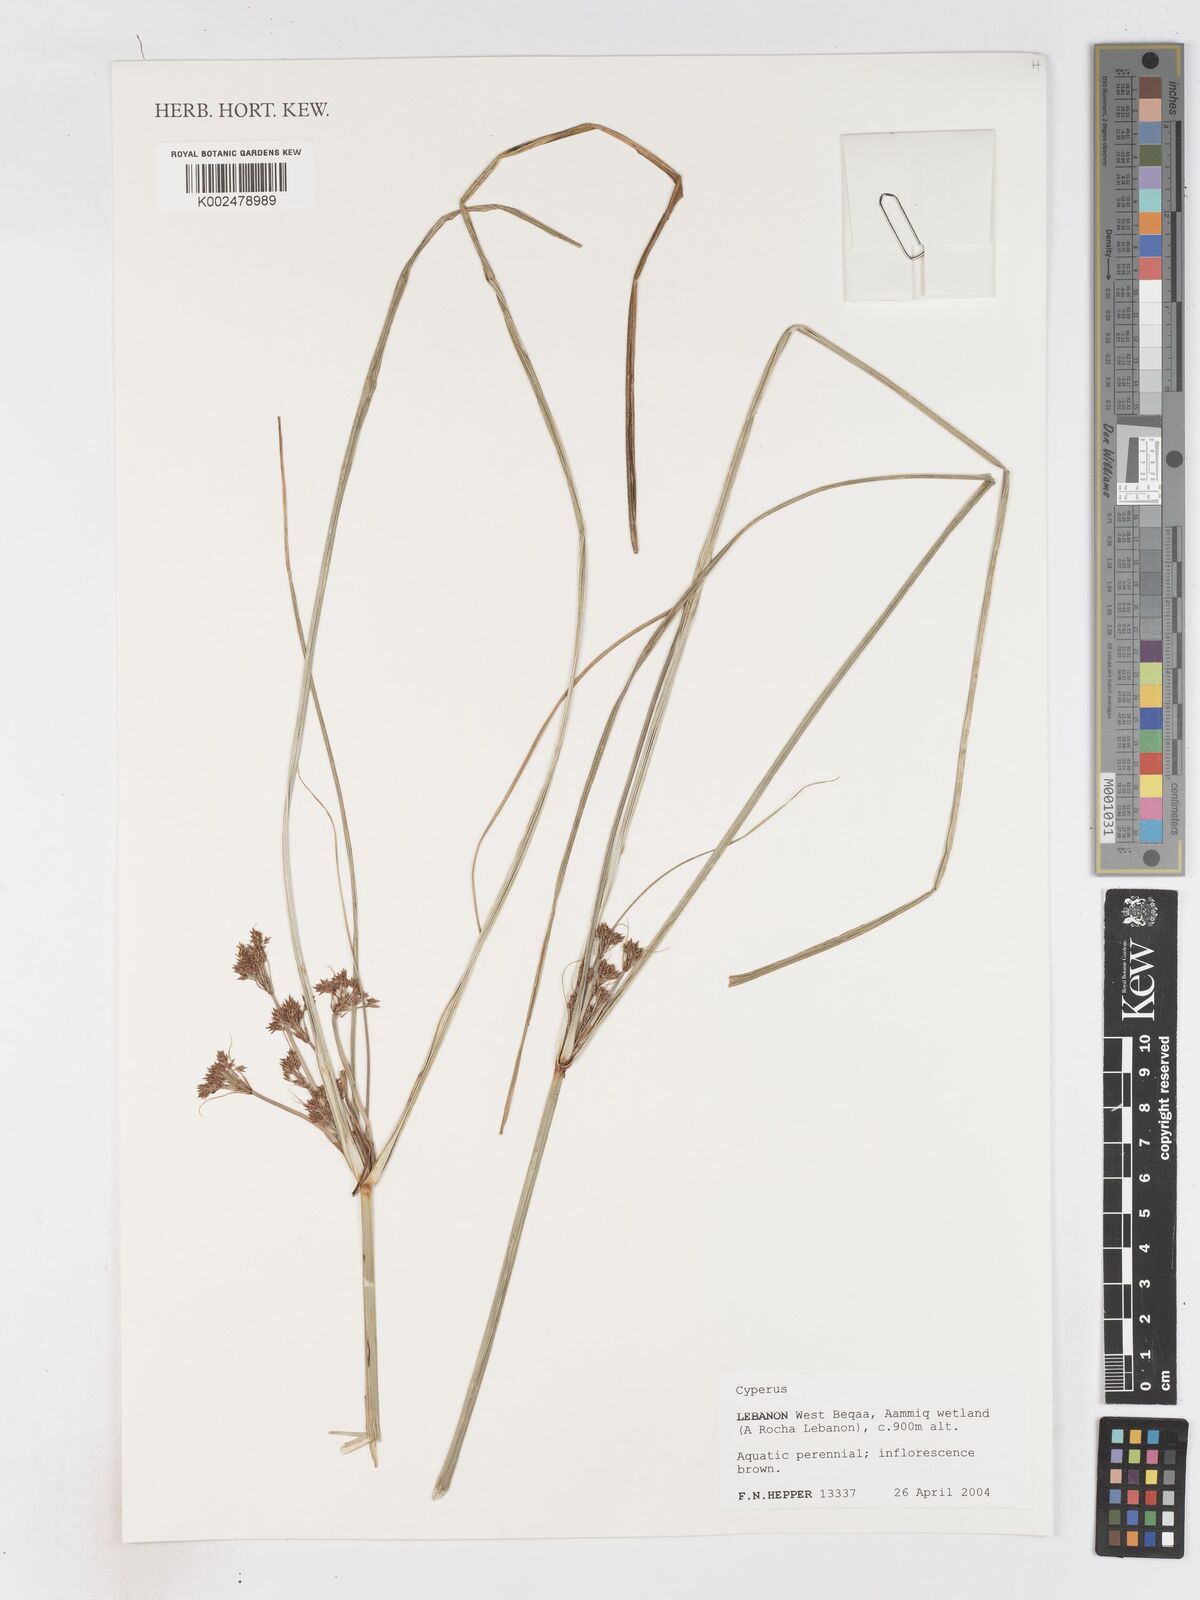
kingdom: Plantae
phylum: Tracheophyta
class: Liliopsida
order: Poales
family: Cyperaceae
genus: Cyperus
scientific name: Cyperus
